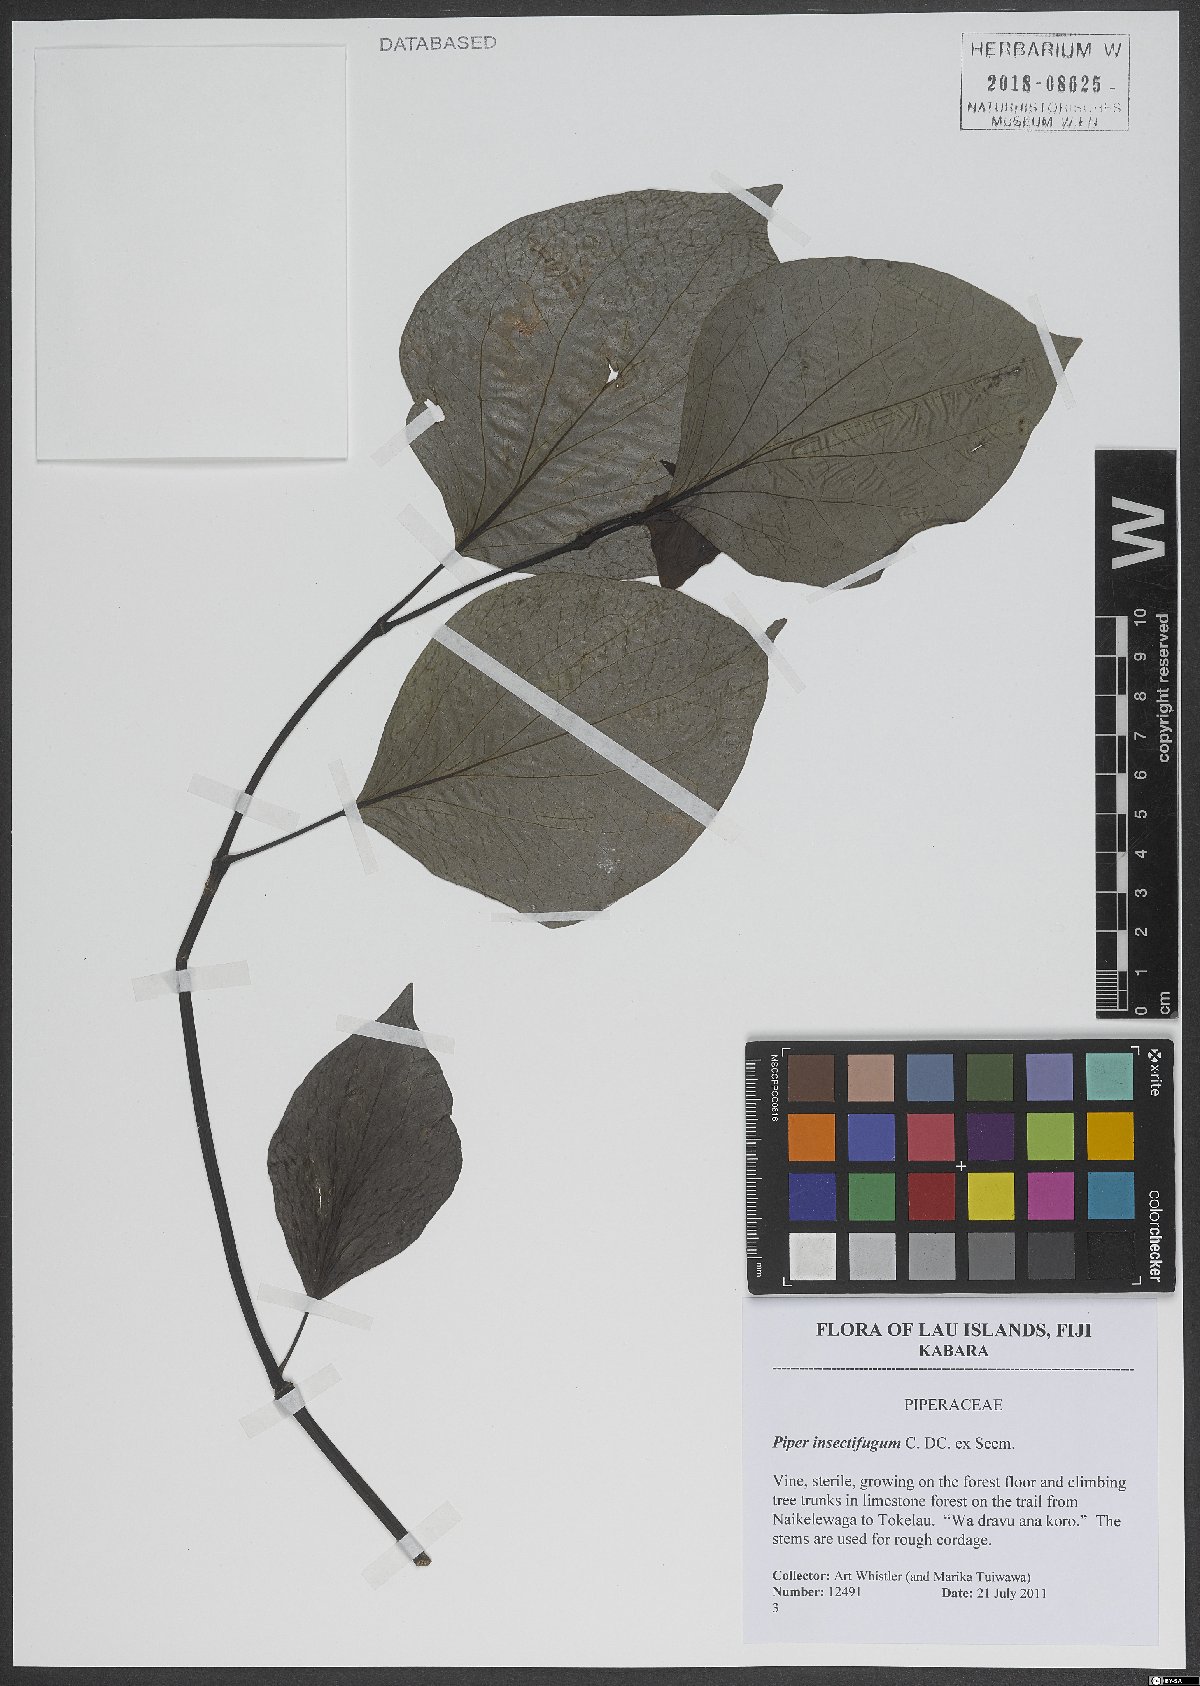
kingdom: Plantae
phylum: Tracheophyta
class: Magnoliopsida
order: Piperales
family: Piperaceae
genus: Piper
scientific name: Piper insectifugum
